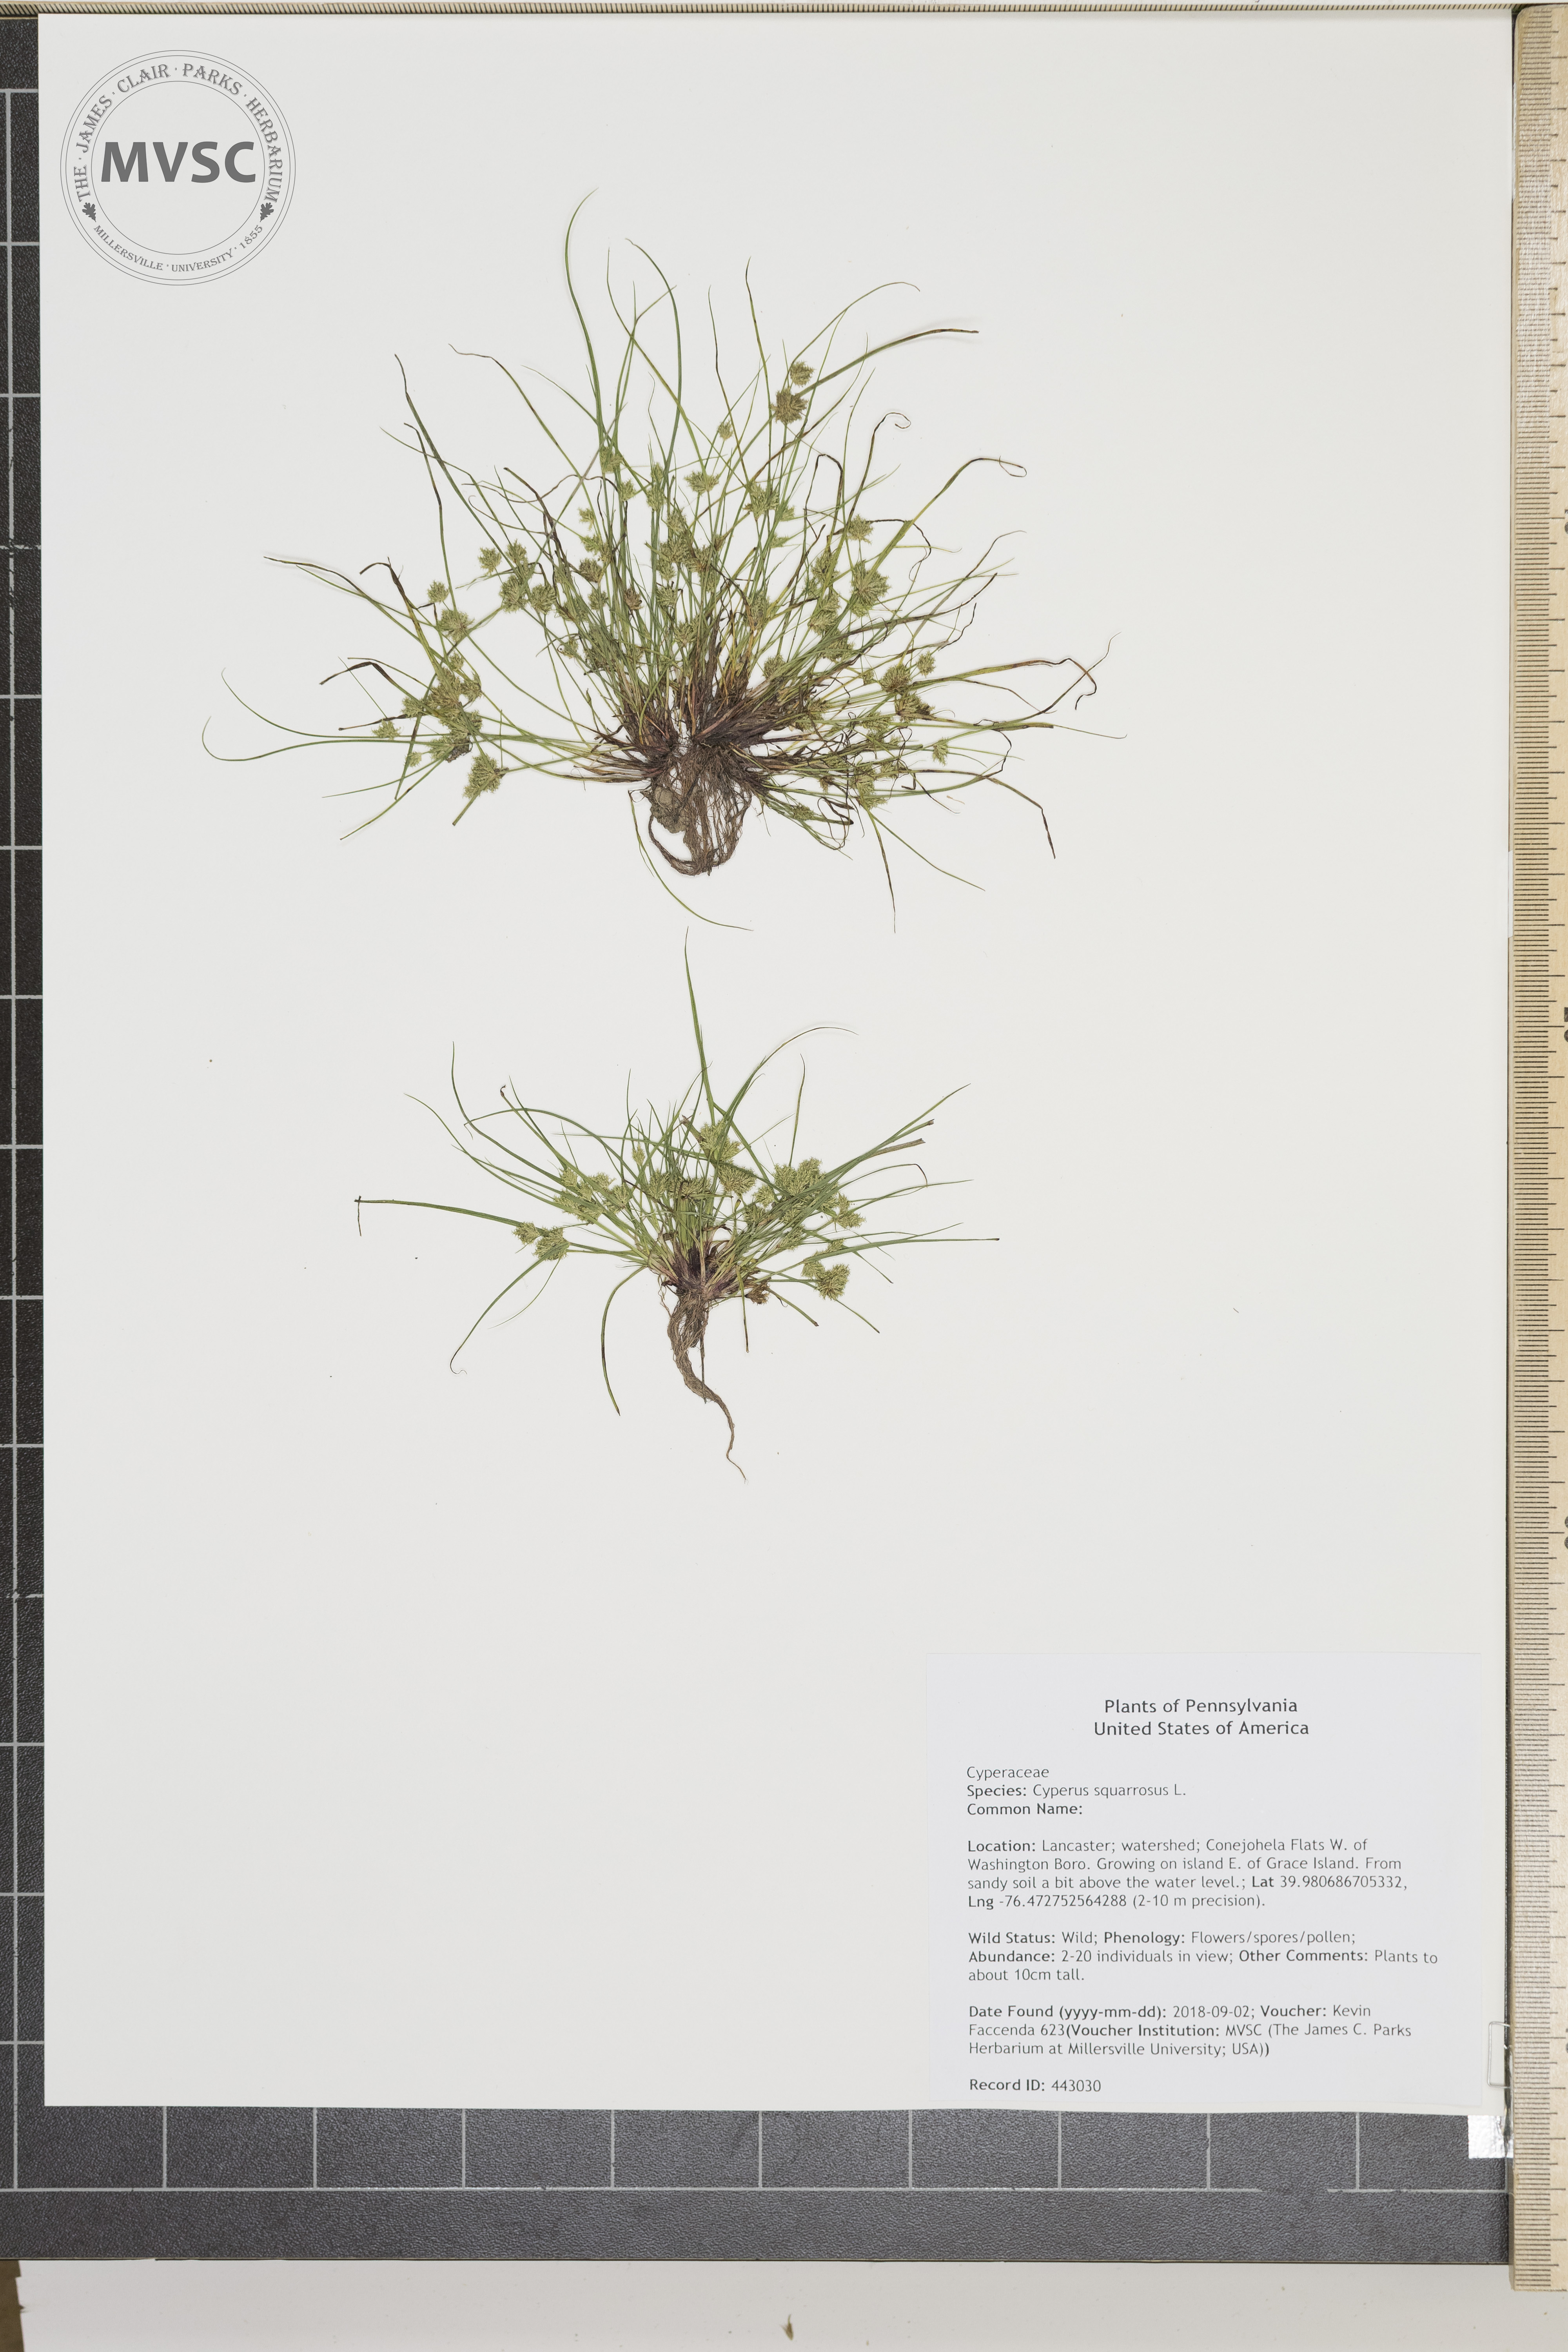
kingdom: Plantae
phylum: Tracheophyta
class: Liliopsida
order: Poales
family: Cyperaceae
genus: Cyperus
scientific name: Cyperus squarrosus
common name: Awned cyperus
